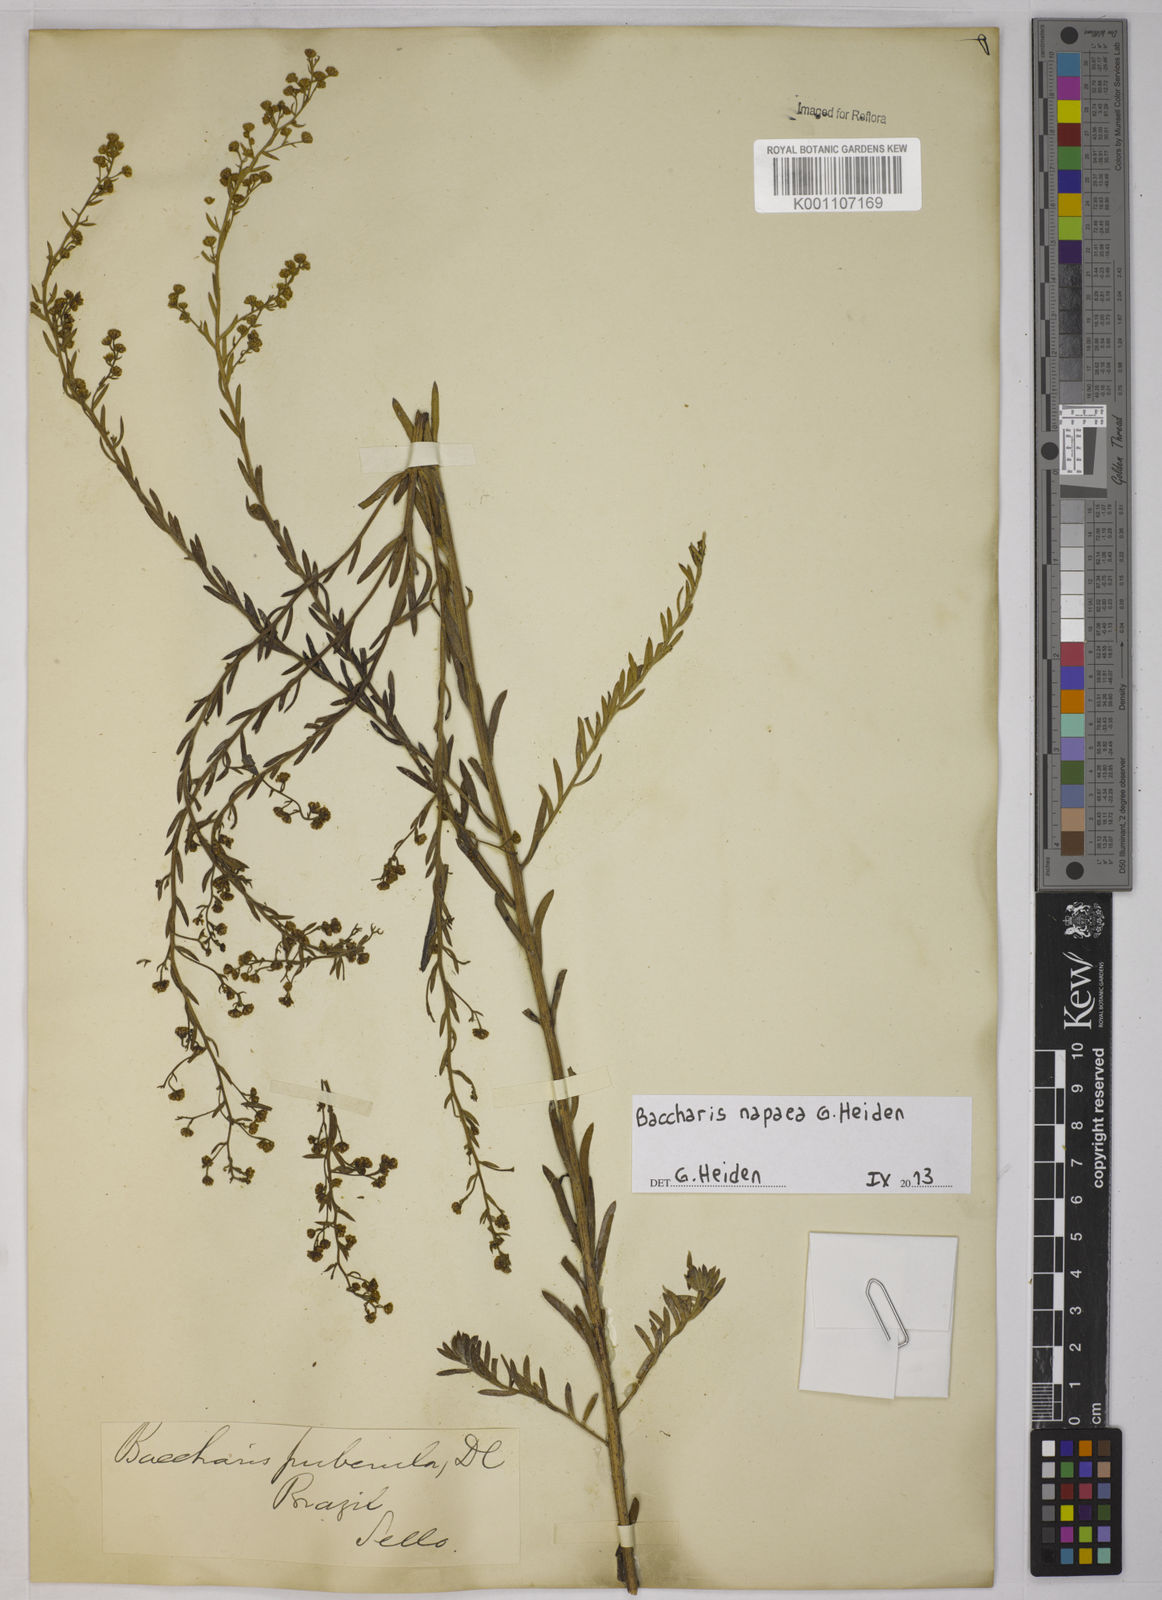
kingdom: Plantae
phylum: Tracheophyta
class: Magnoliopsida
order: Asterales
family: Asteraceae
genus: Baccharis
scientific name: Baccharis napaea
